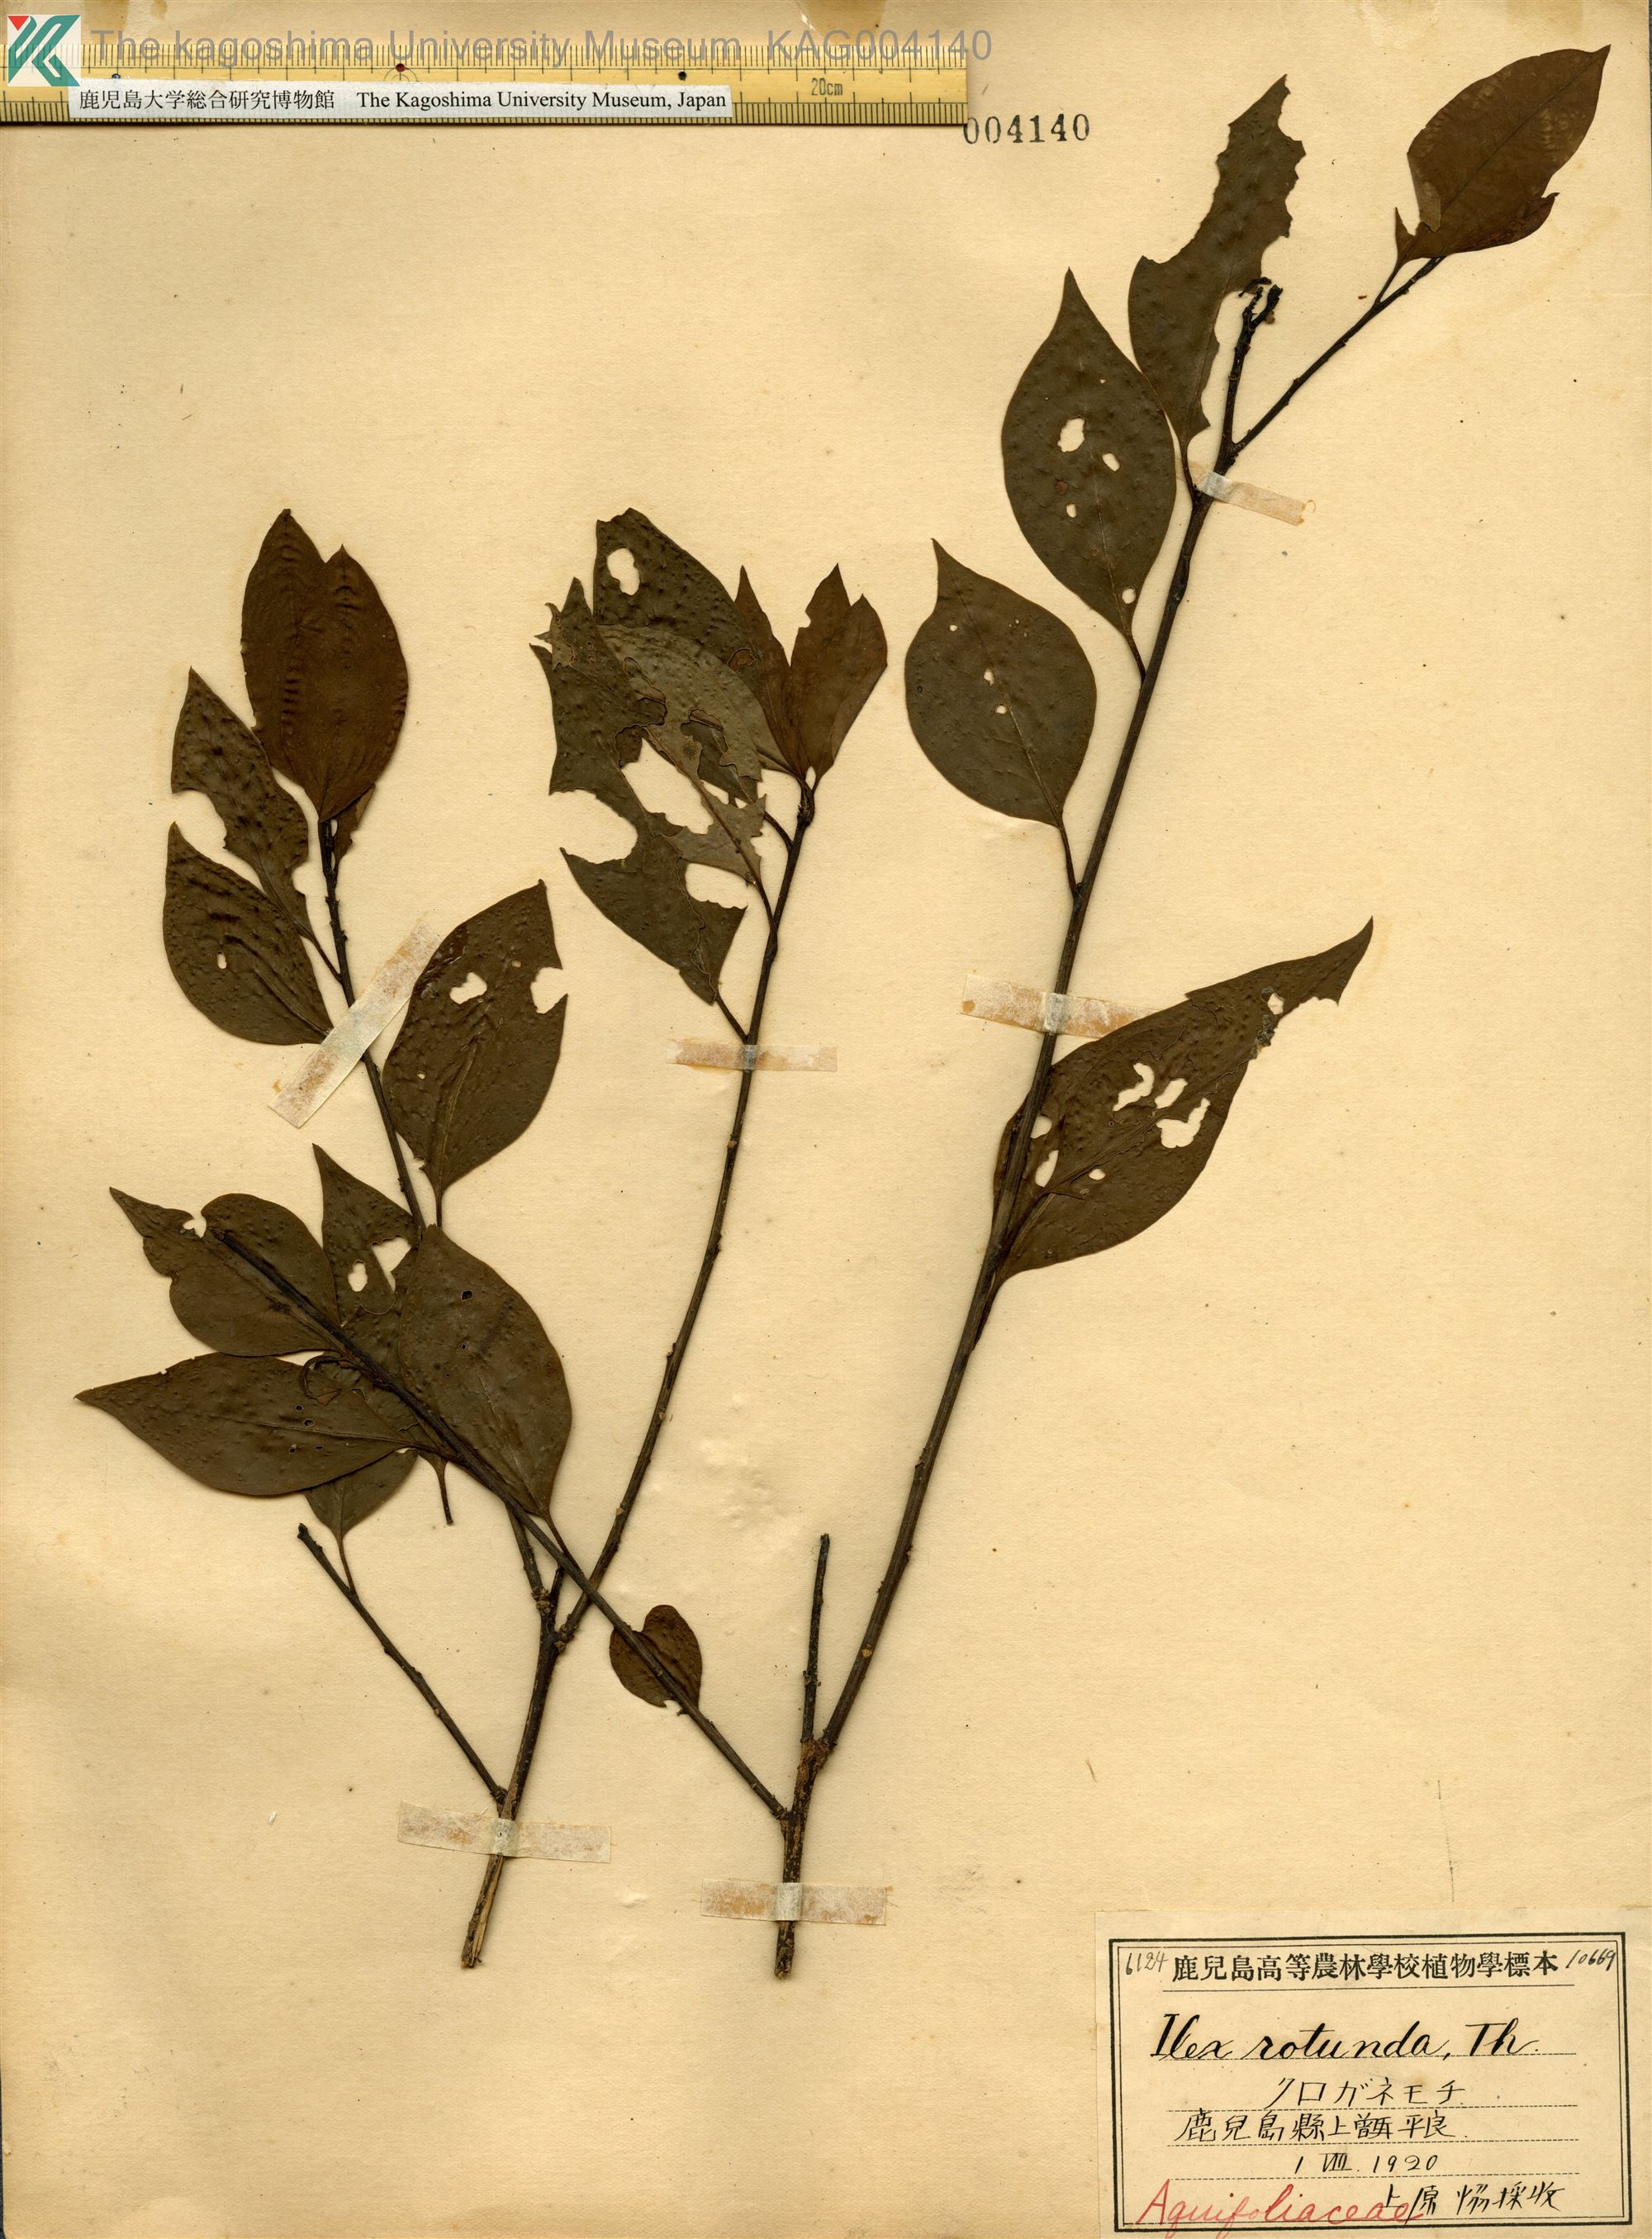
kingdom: Plantae
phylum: Tracheophyta
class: Magnoliopsida
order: Aquifoliales
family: Aquifoliaceae
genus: Ilex
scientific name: Ilex rotunda
